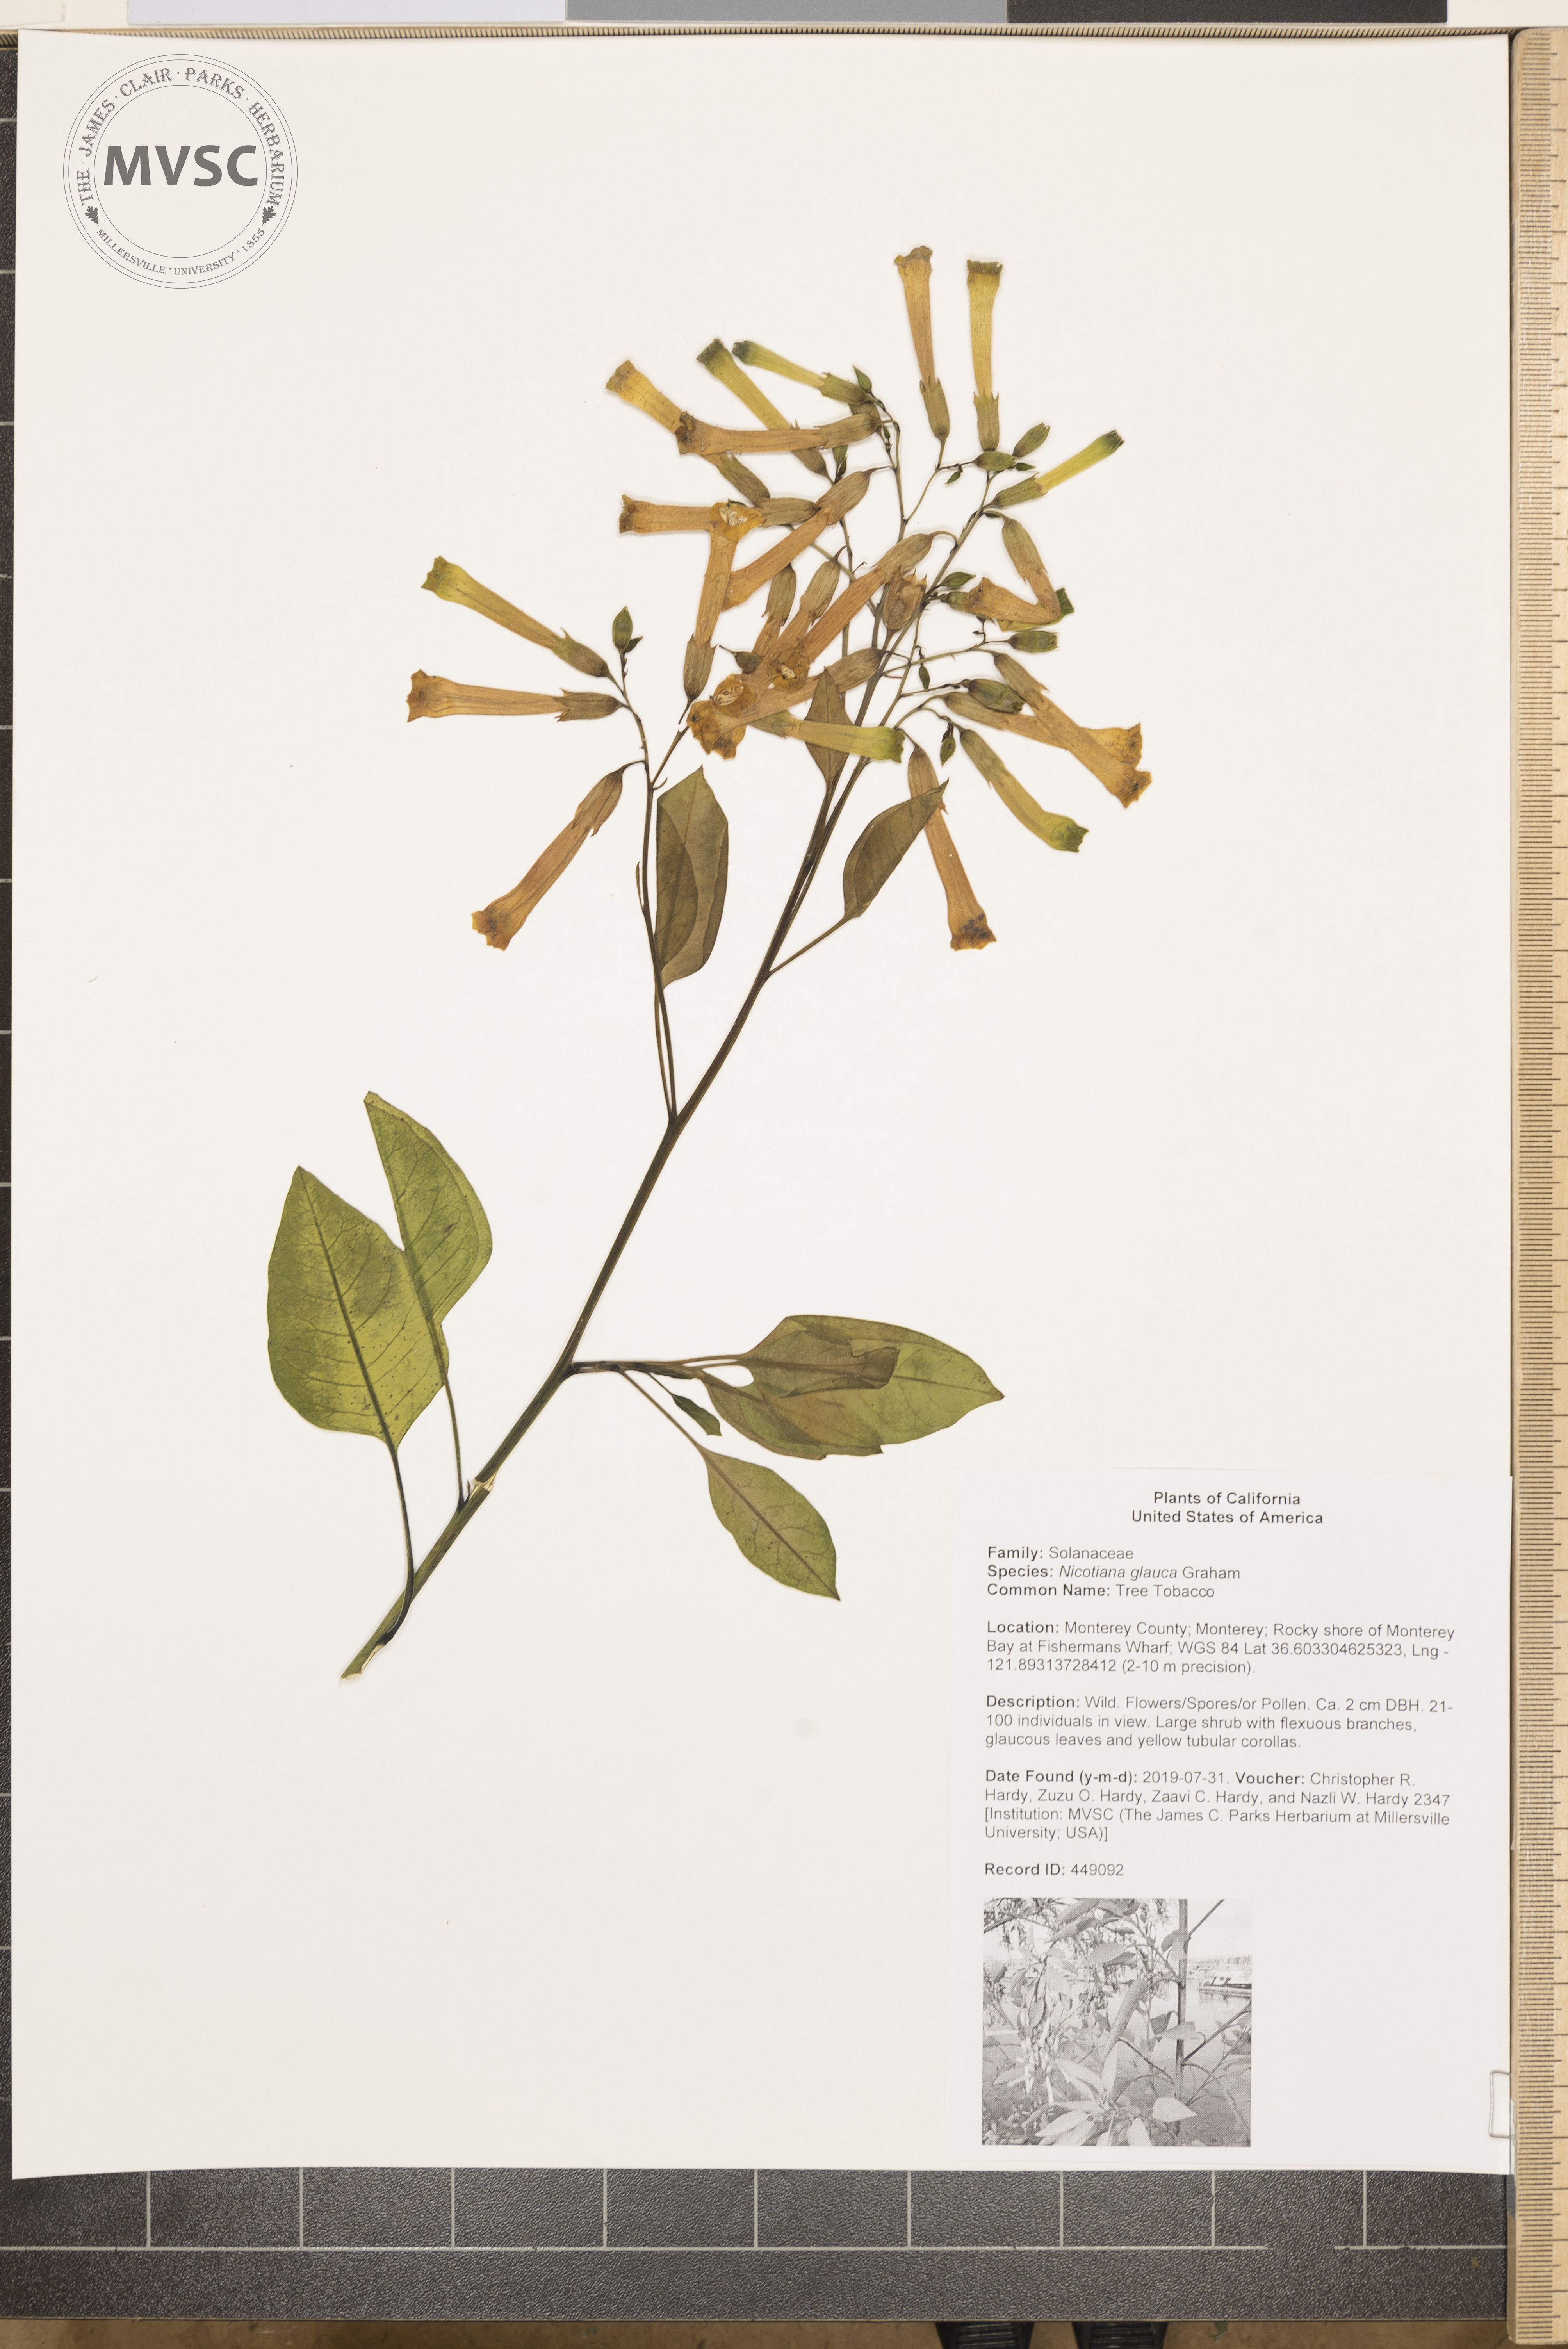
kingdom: Plantae
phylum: Tracheophyta
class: Magnoliopsida
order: Solanales
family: Solanaceae
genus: Nicotiana
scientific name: Nicotiana glauca
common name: Tree Tobacco
